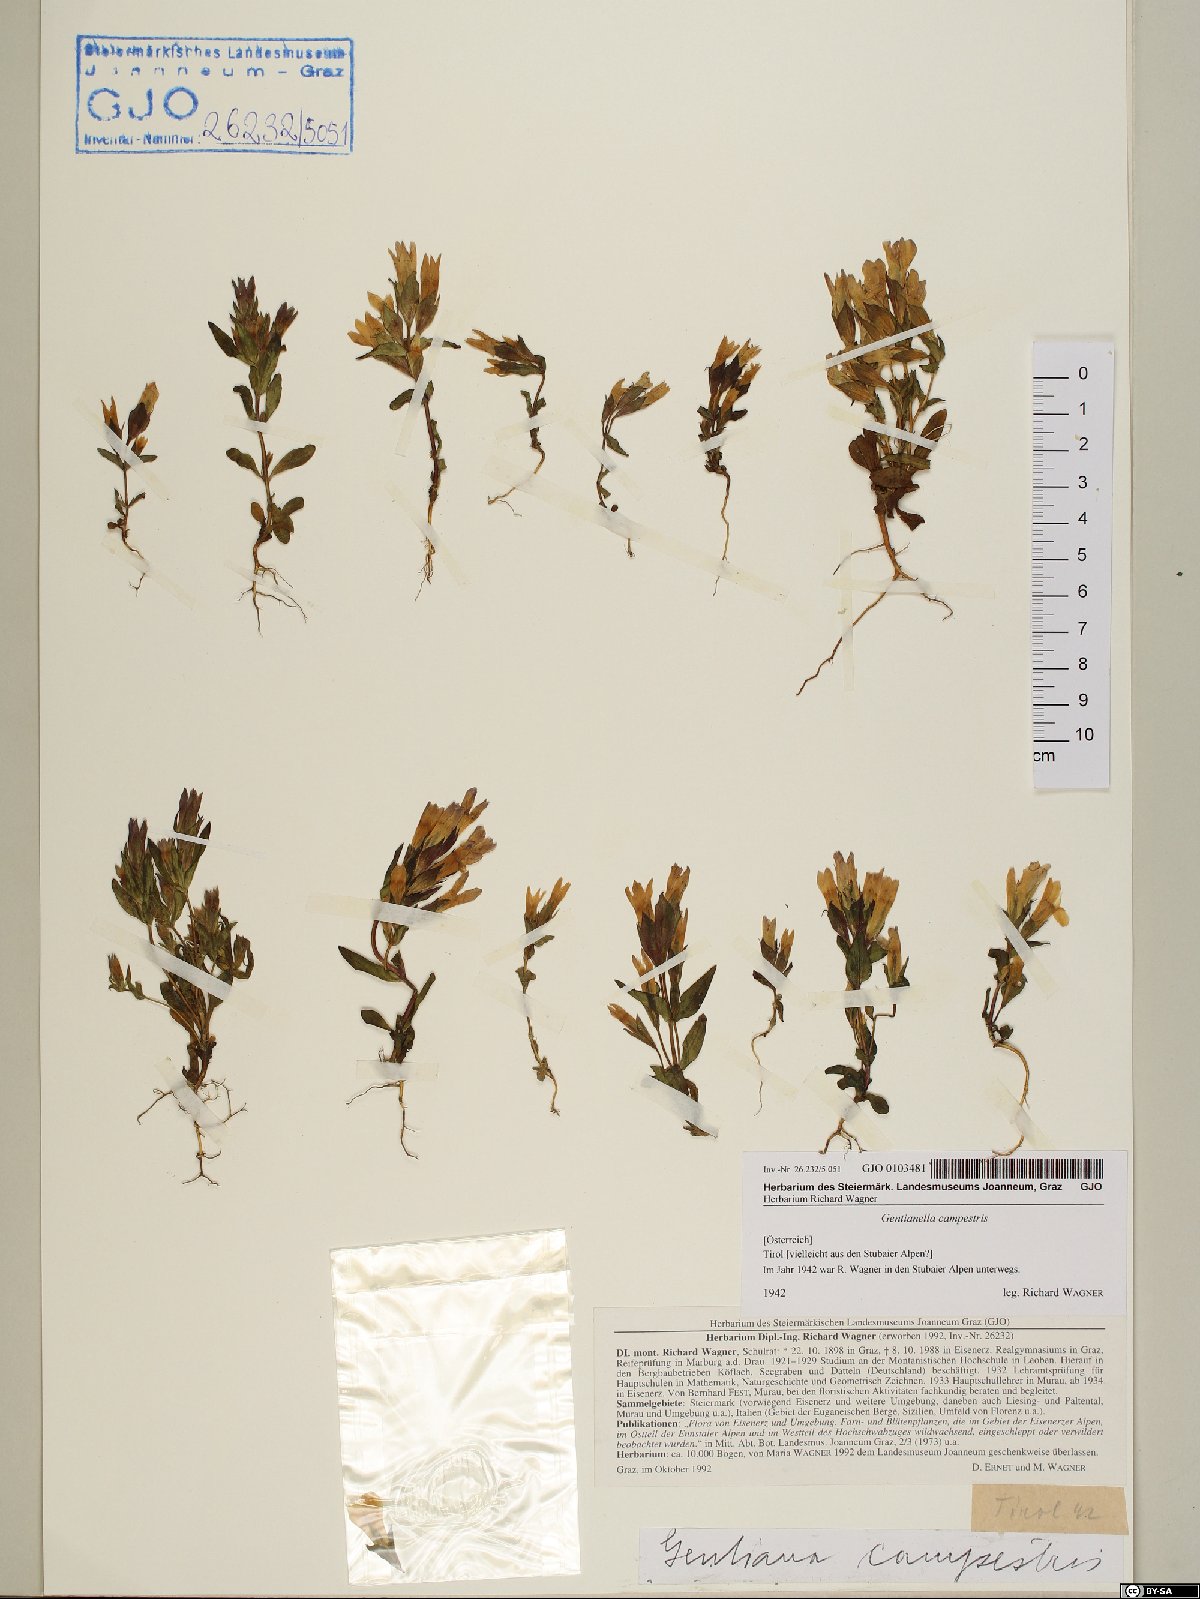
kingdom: Plantae
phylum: Tracheophyta
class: Magnoliopsida
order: Gentianales
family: Gentianaceae
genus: Gentianella
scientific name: Gentianella campestris
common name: Field gentian
